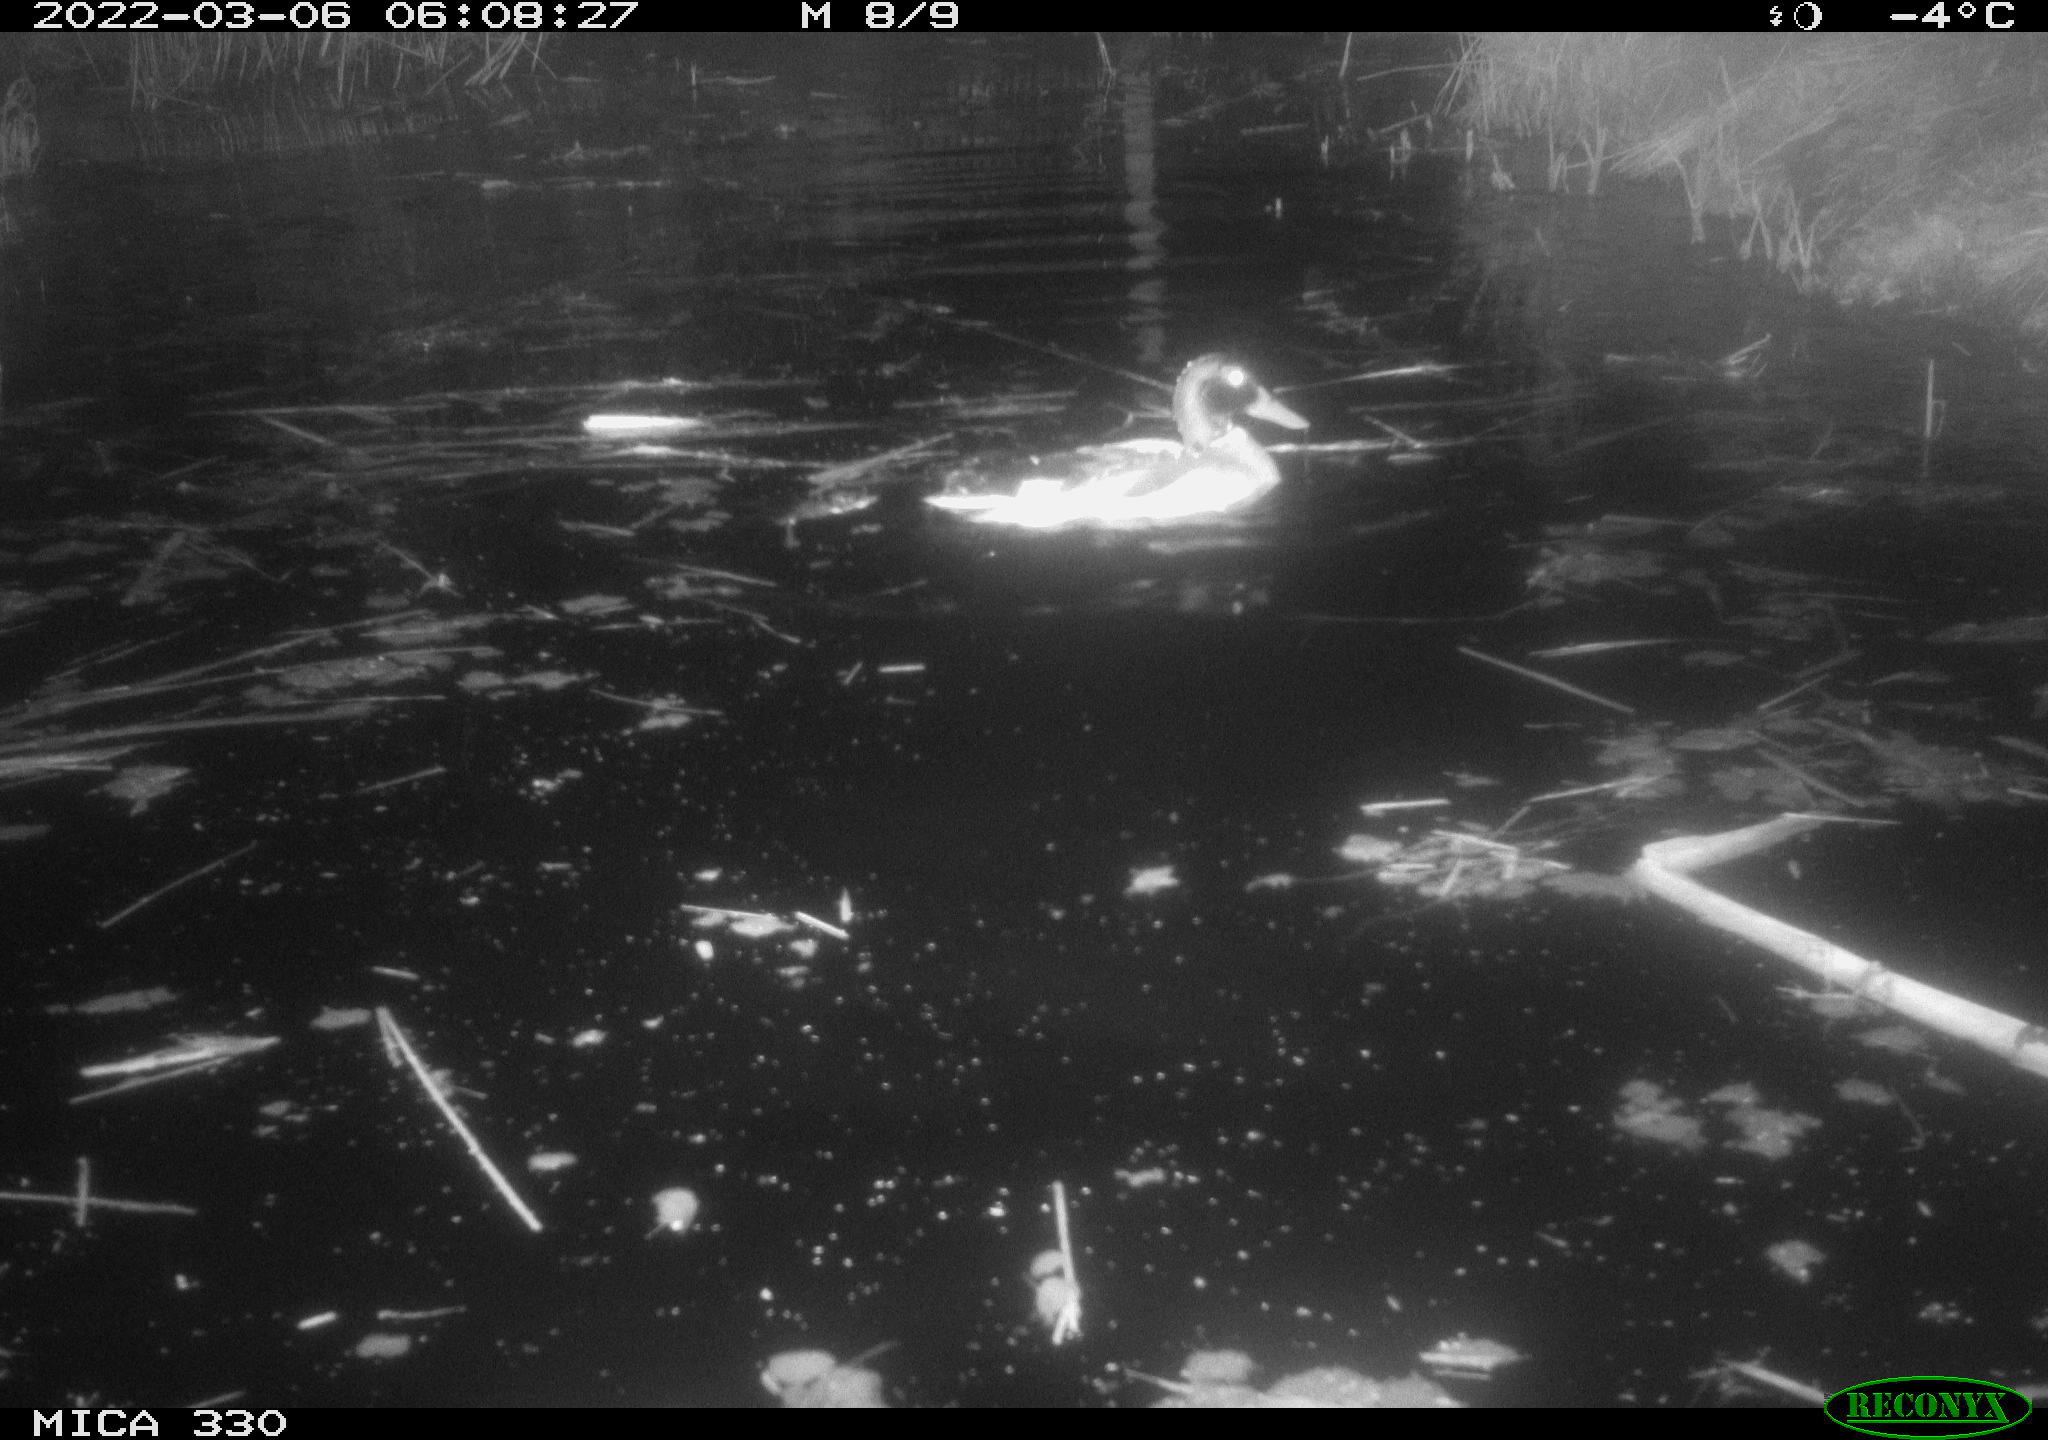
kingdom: Animalia
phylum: Chordata
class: Aves
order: Anseriformes
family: Anatidae
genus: Anas
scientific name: Anas platyrhynchos
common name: Mallard
